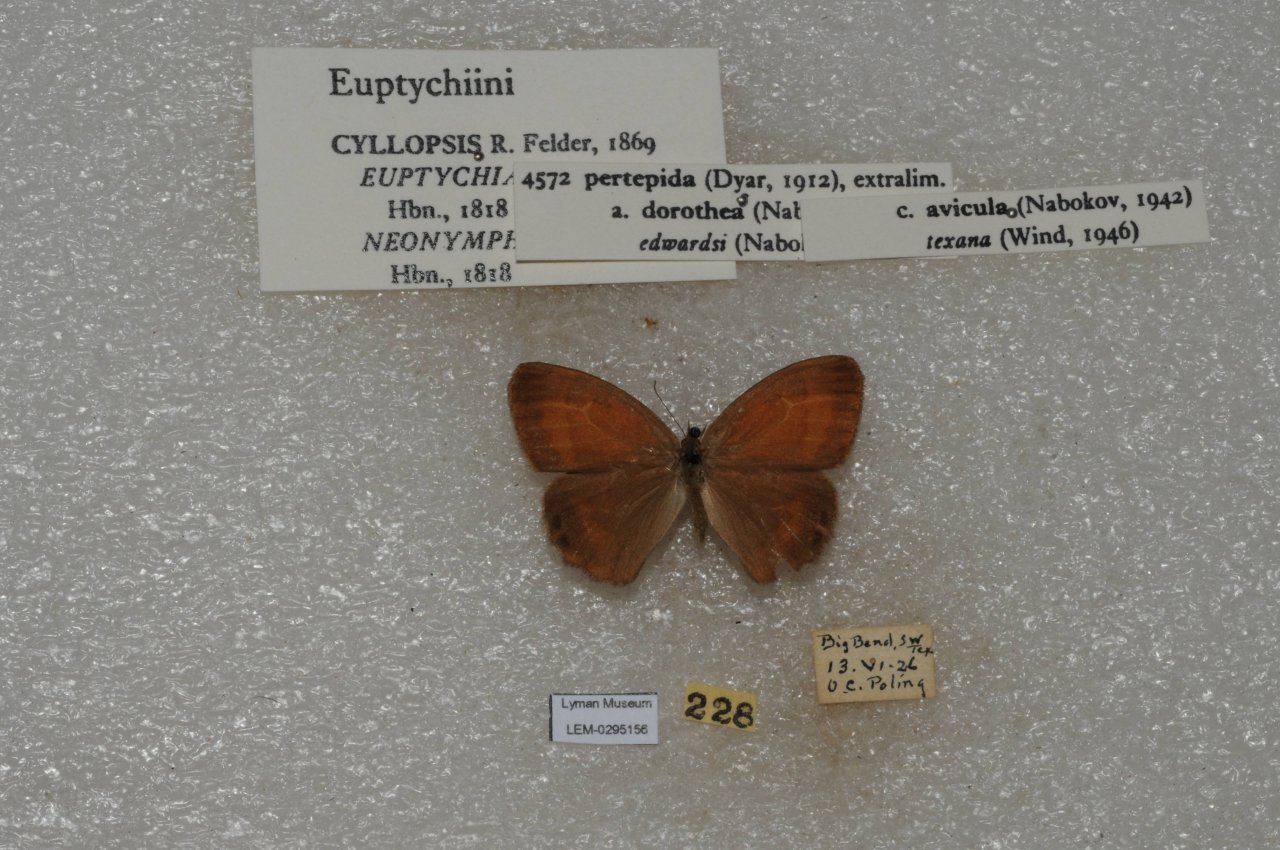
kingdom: Animalia
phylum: Arthropoda
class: Insecta
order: Lepidoptera
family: Nymphalidae
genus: Euptychia
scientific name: Euptychia Cyllopsis pertepida
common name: Canyonland Satyr
